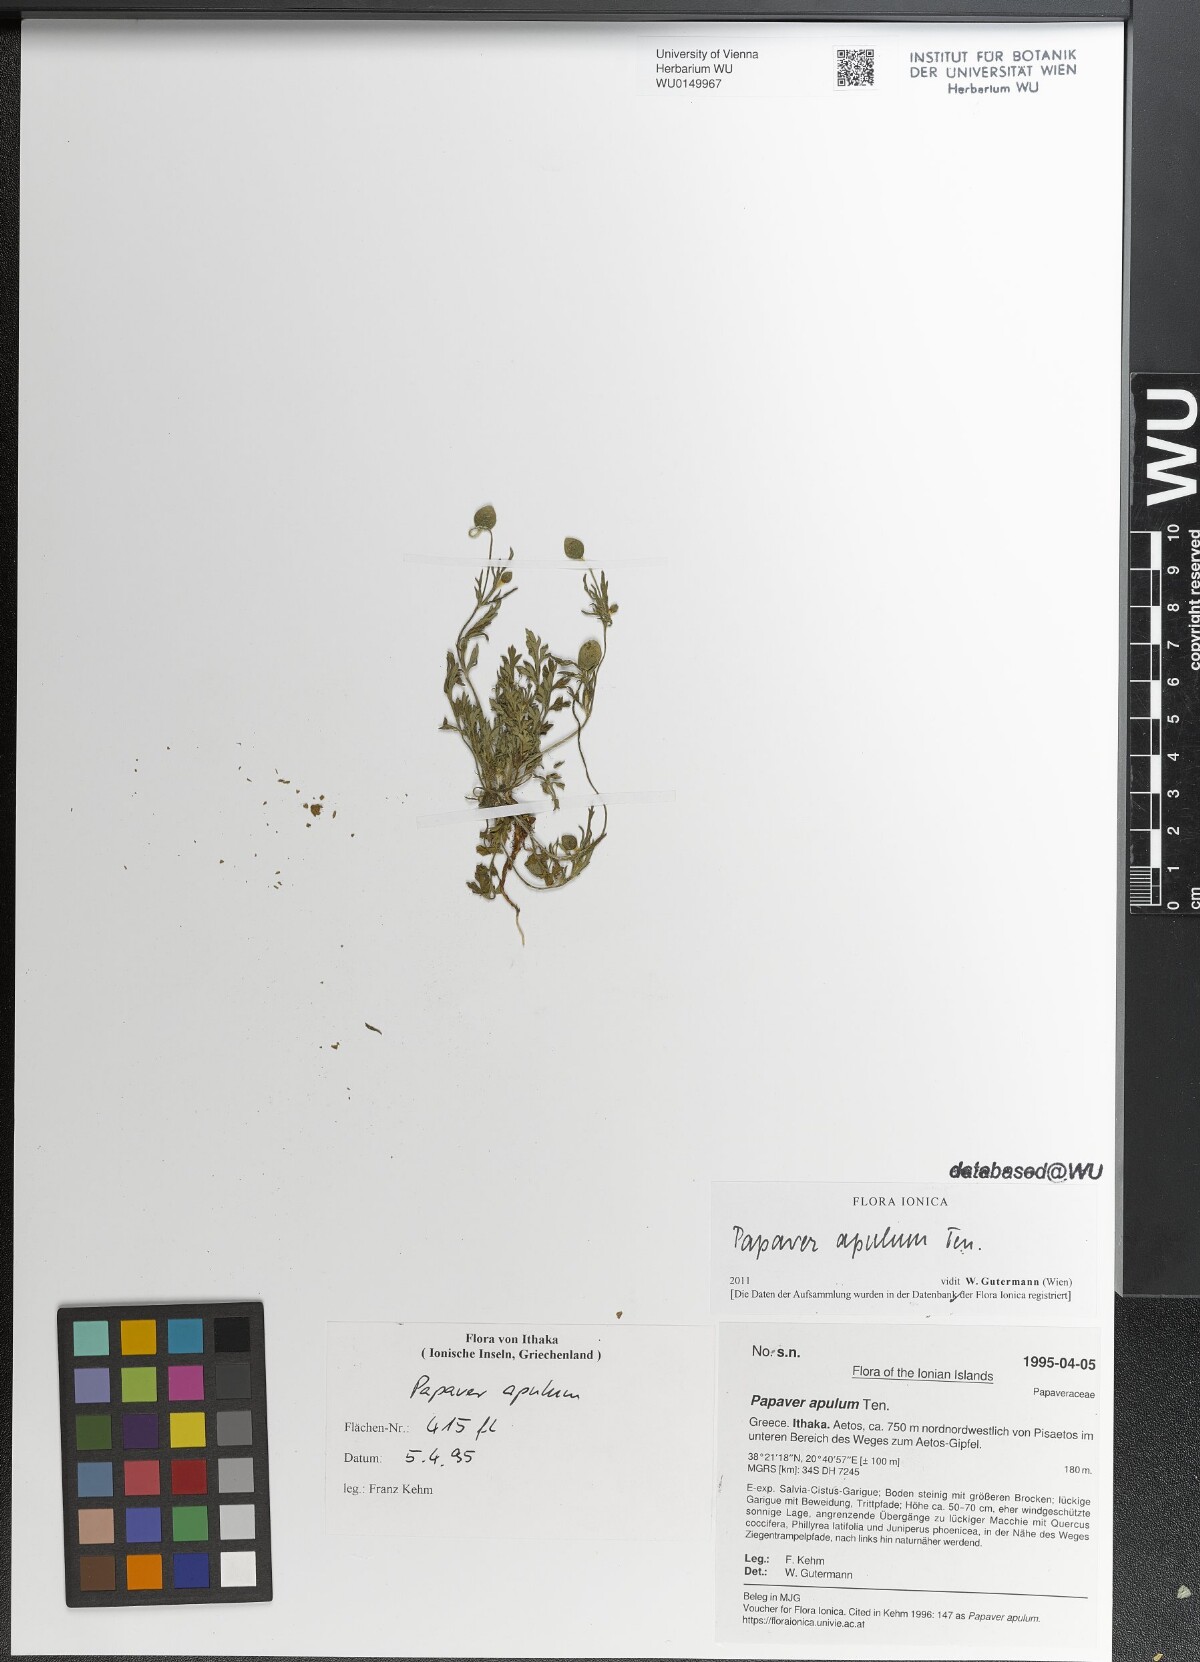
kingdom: Plantae
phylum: Tracheophyta
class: Magnoliopsida
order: Ranunculales
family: Papaveraceae
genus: Roemeria
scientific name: Roemeria apula
